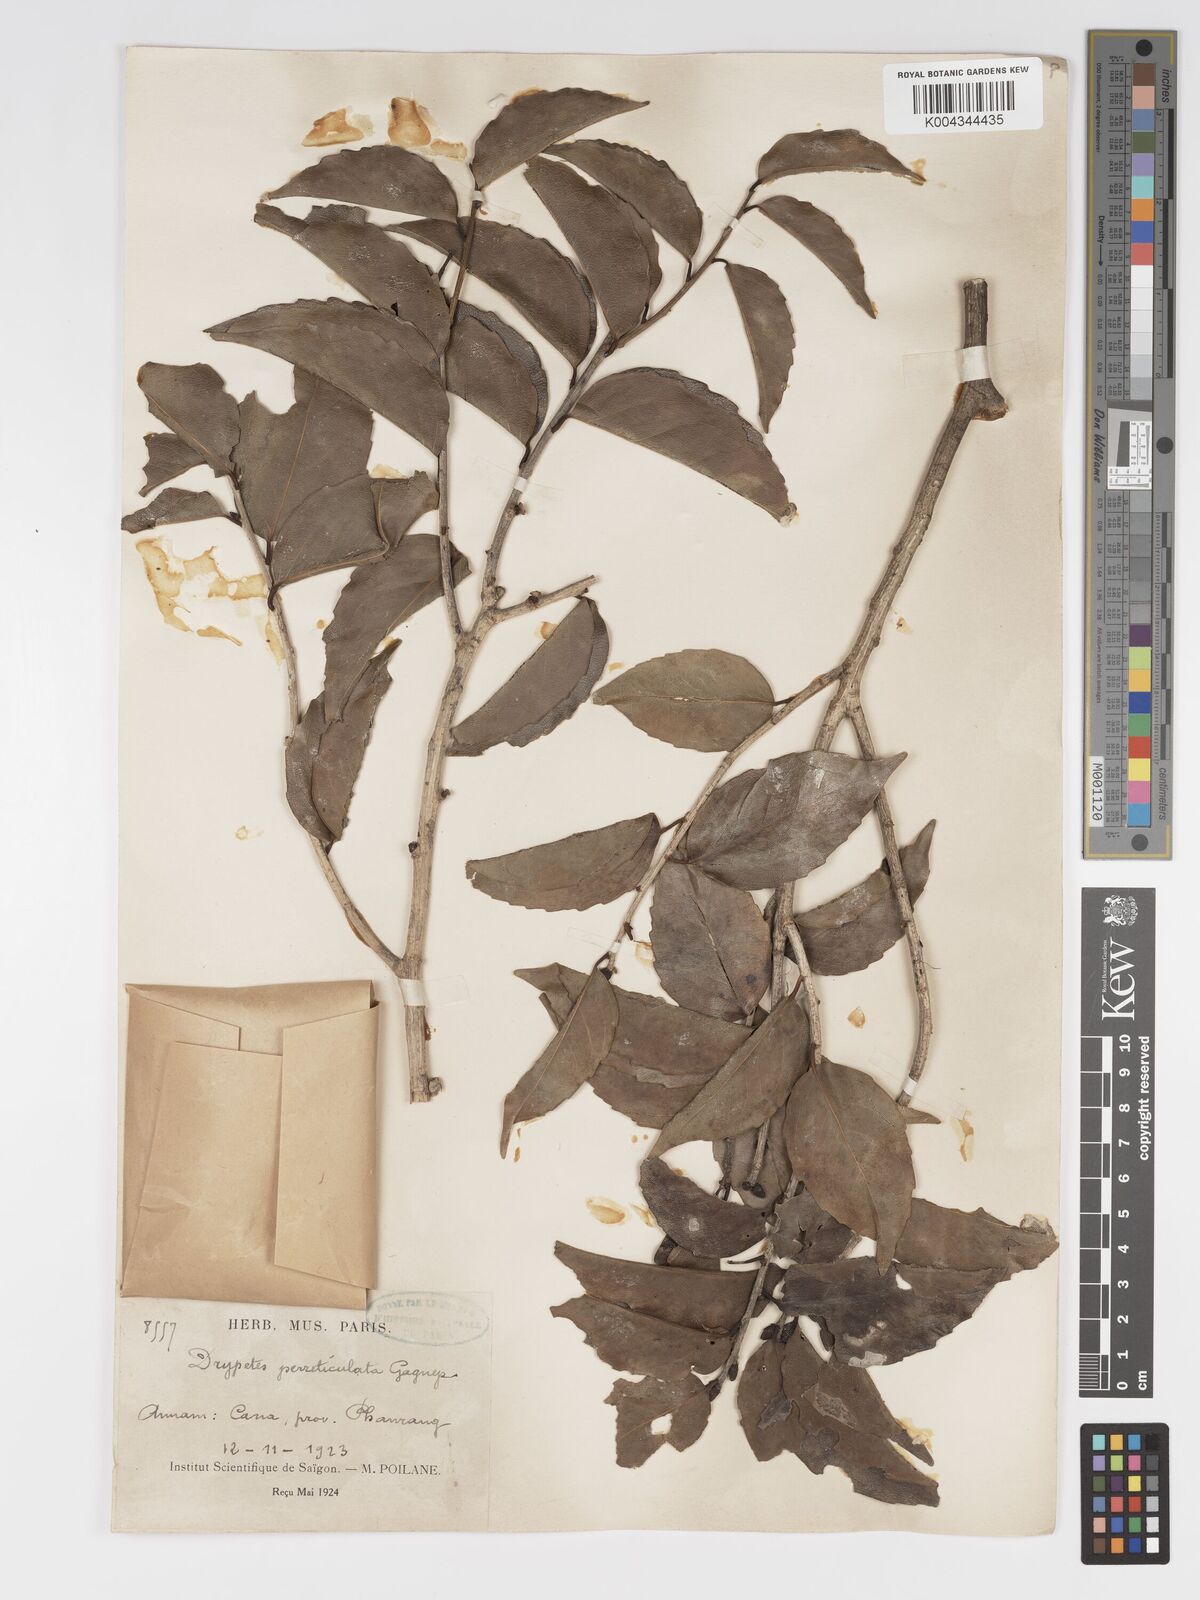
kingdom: Plantae
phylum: Tracheophyta
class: Magnoliopsida
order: Malpighiales
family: Putranjivaceae
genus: Drypetes
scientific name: Drypetes perreticulata
